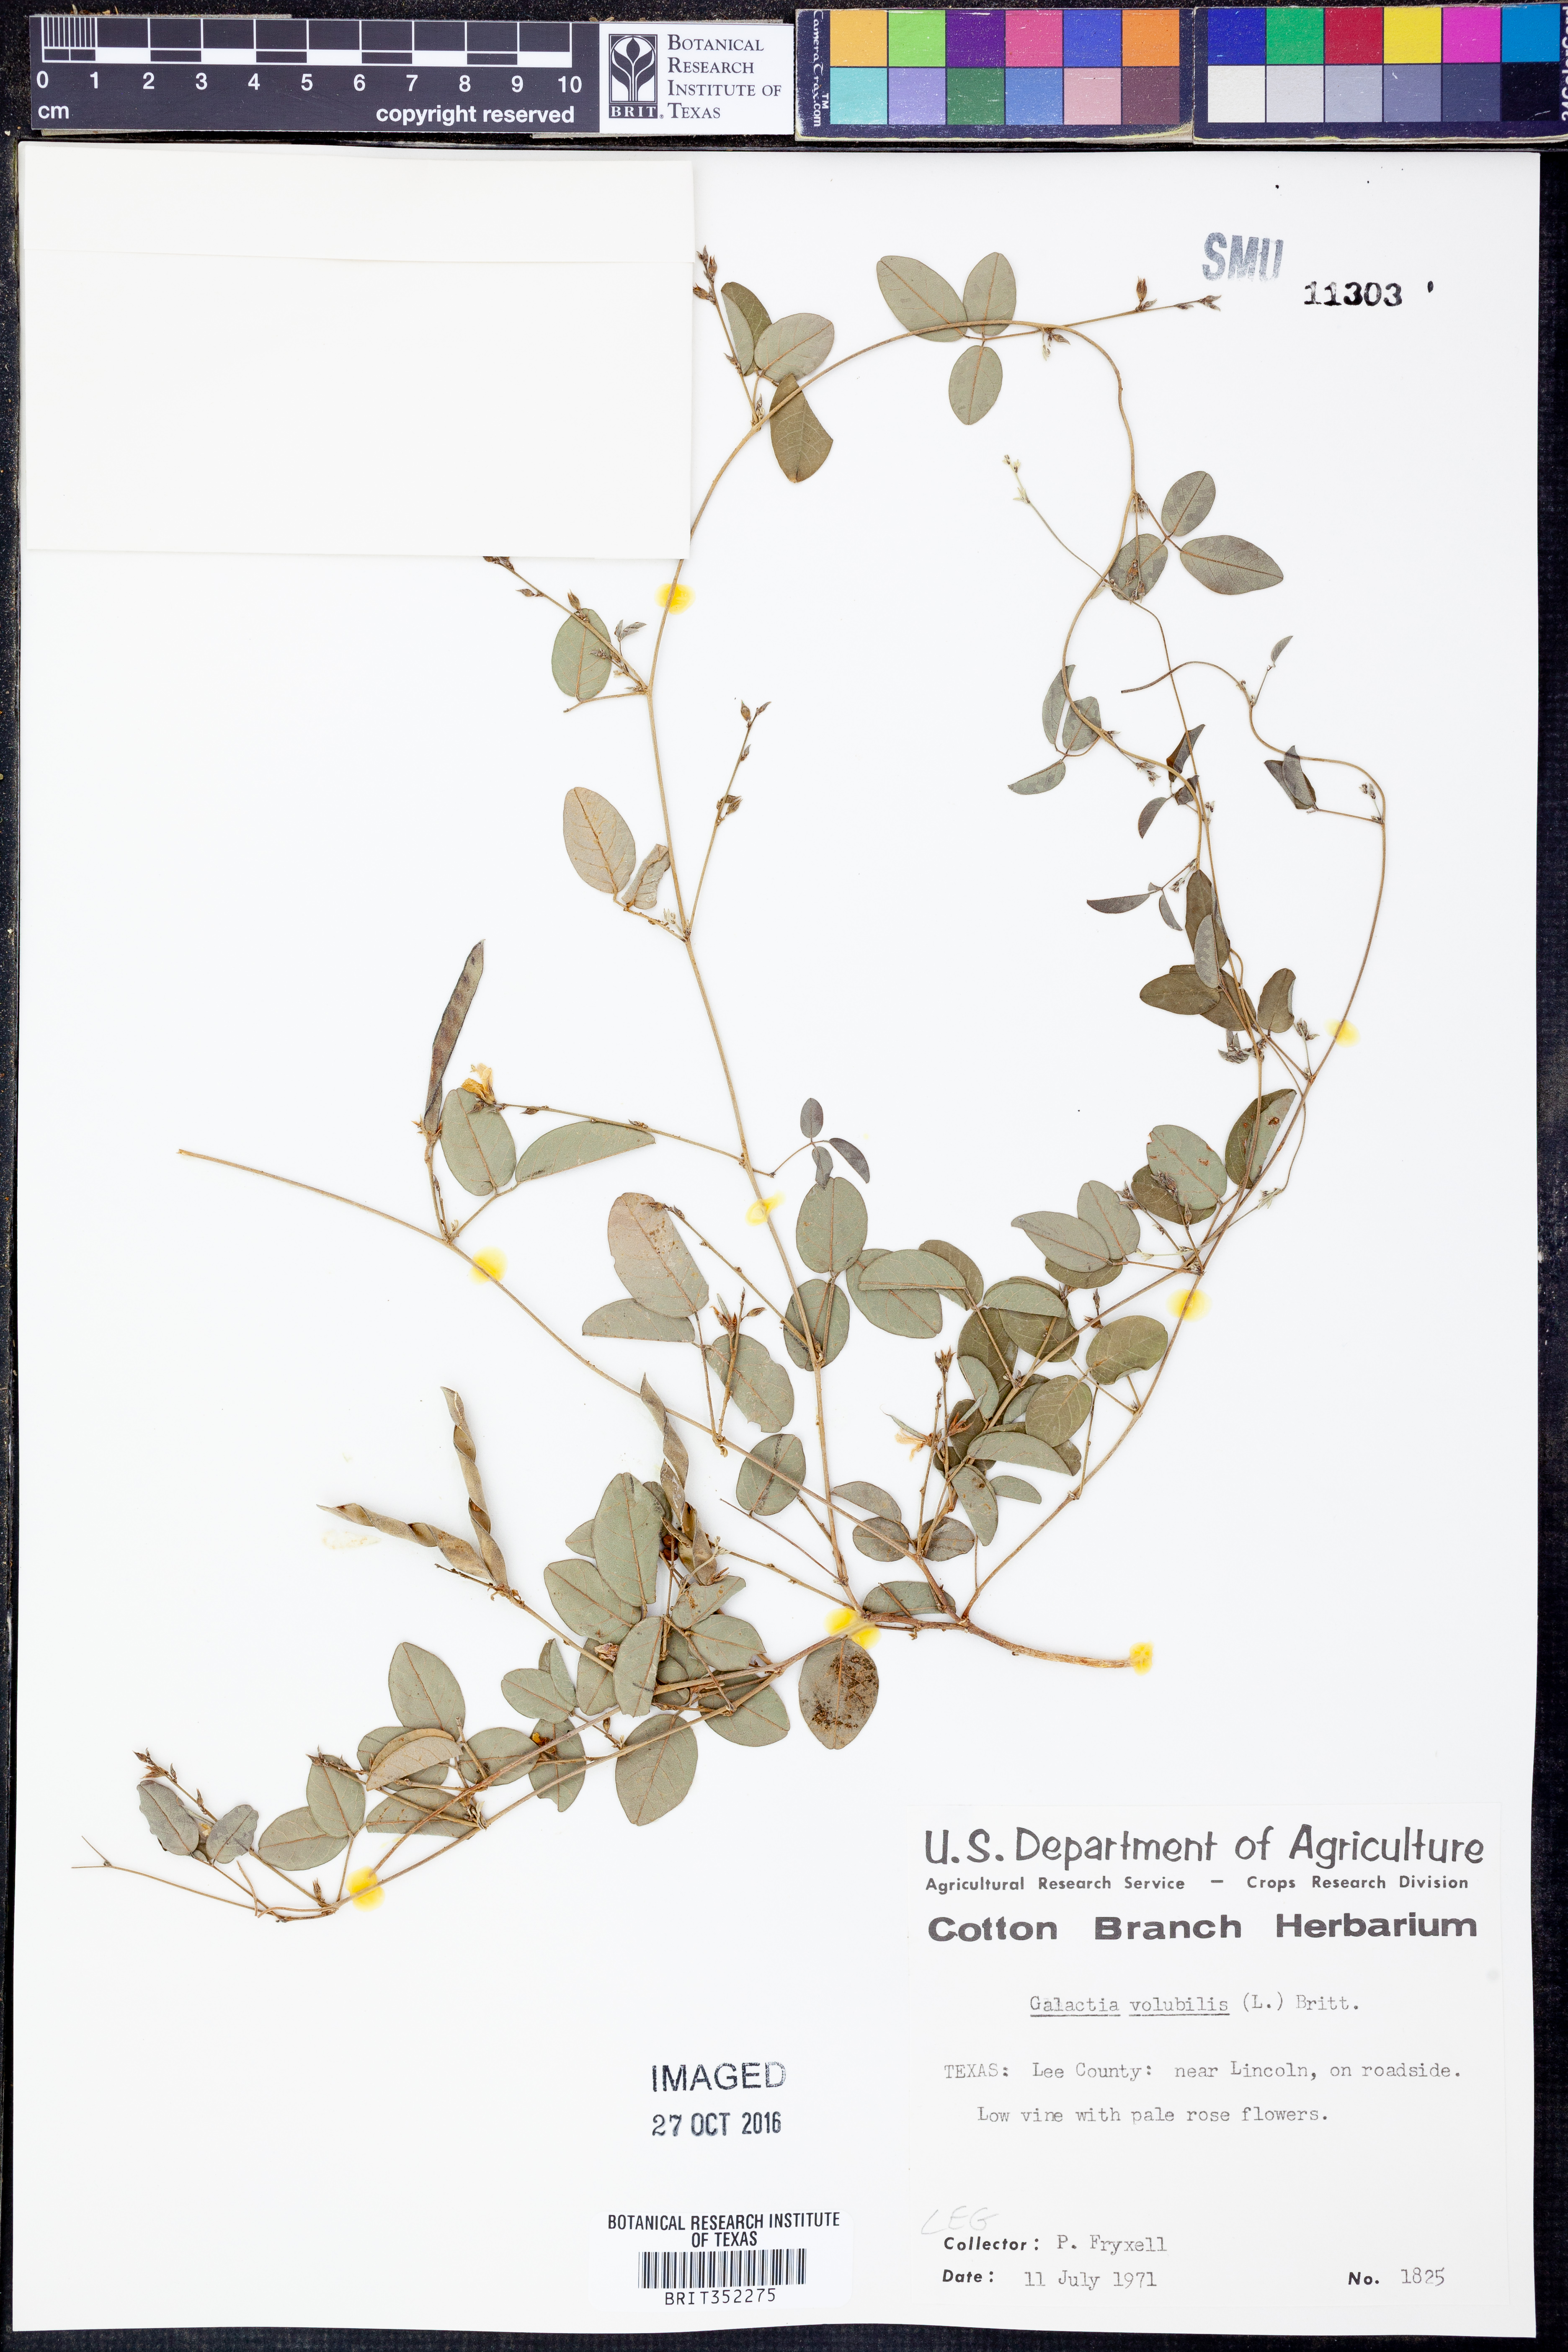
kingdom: Plantae
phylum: Tracheophyta
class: Magnoliopsida
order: Fabales
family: Fabaceae
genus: Galactia
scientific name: Galactia volubilis
